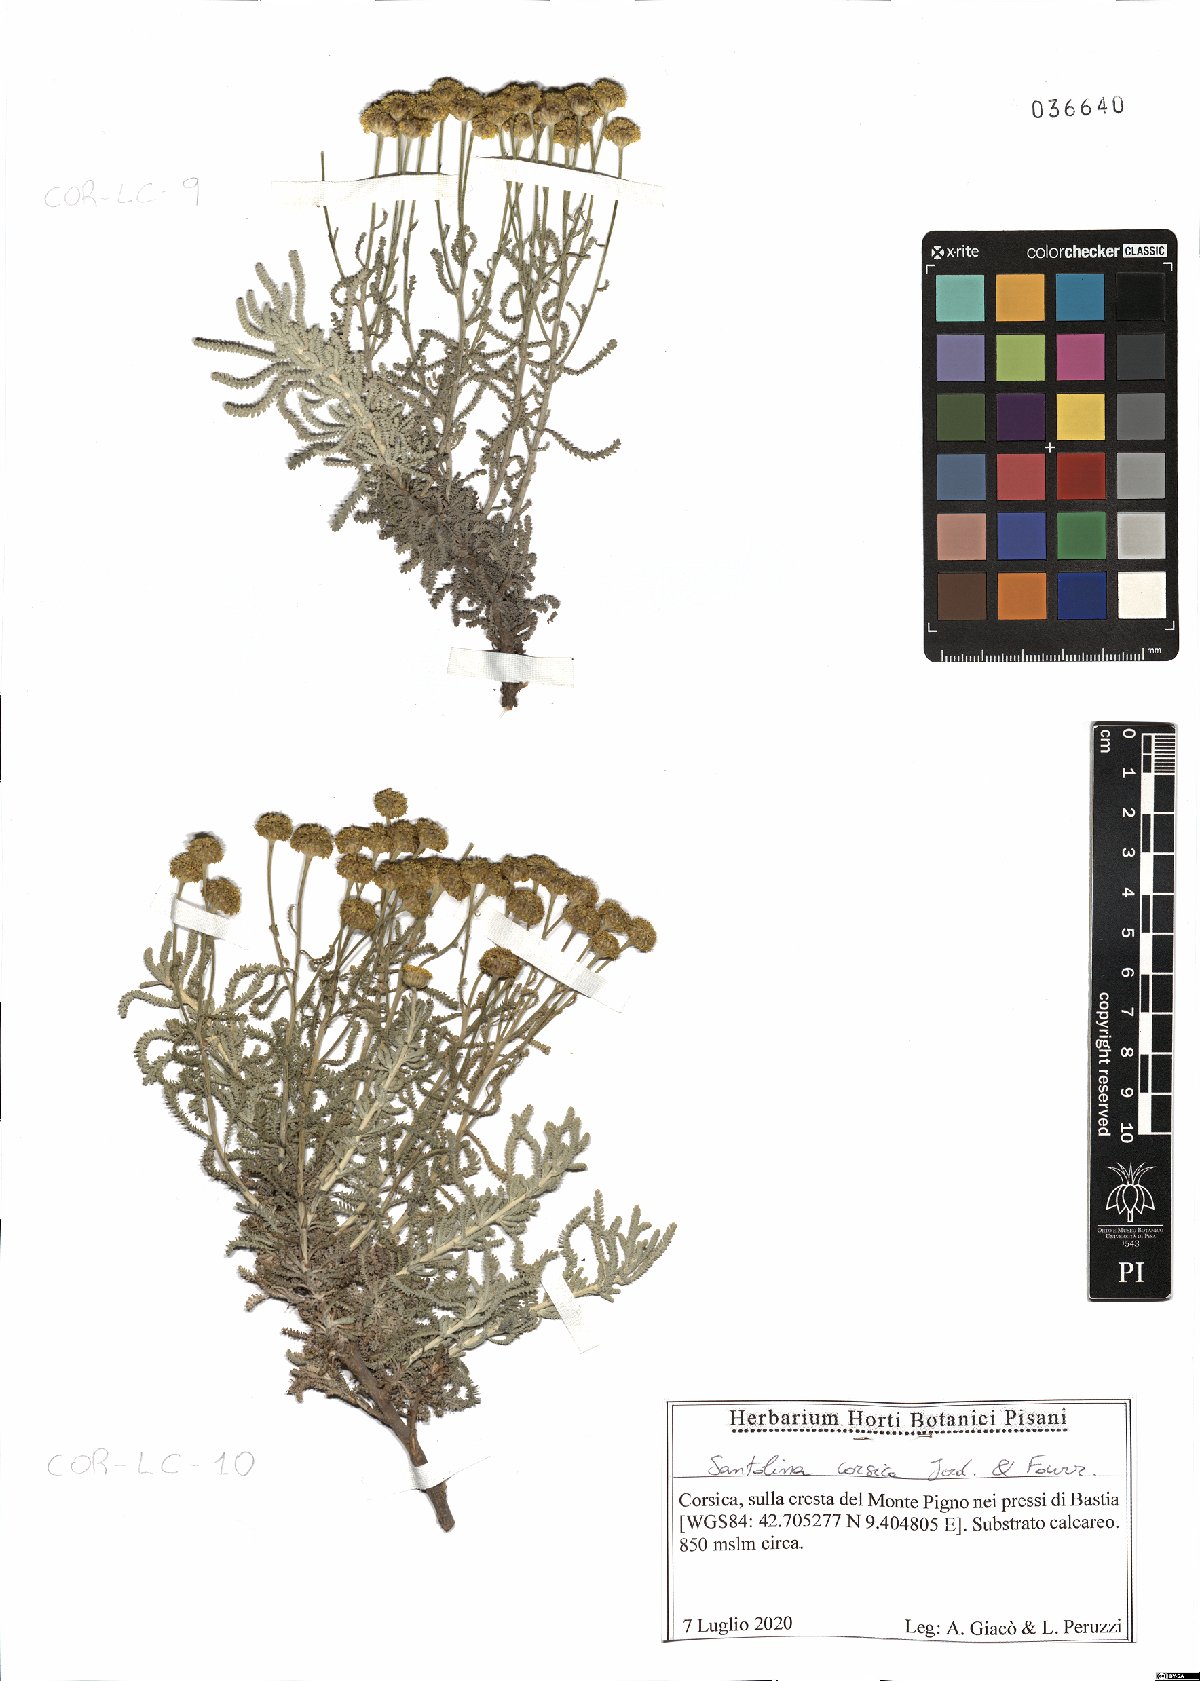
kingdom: Plantae
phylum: Tracheophyta
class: Magnoliopsida
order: Asterales
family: Asteraceae
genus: Santolina
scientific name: Santolina corsica
